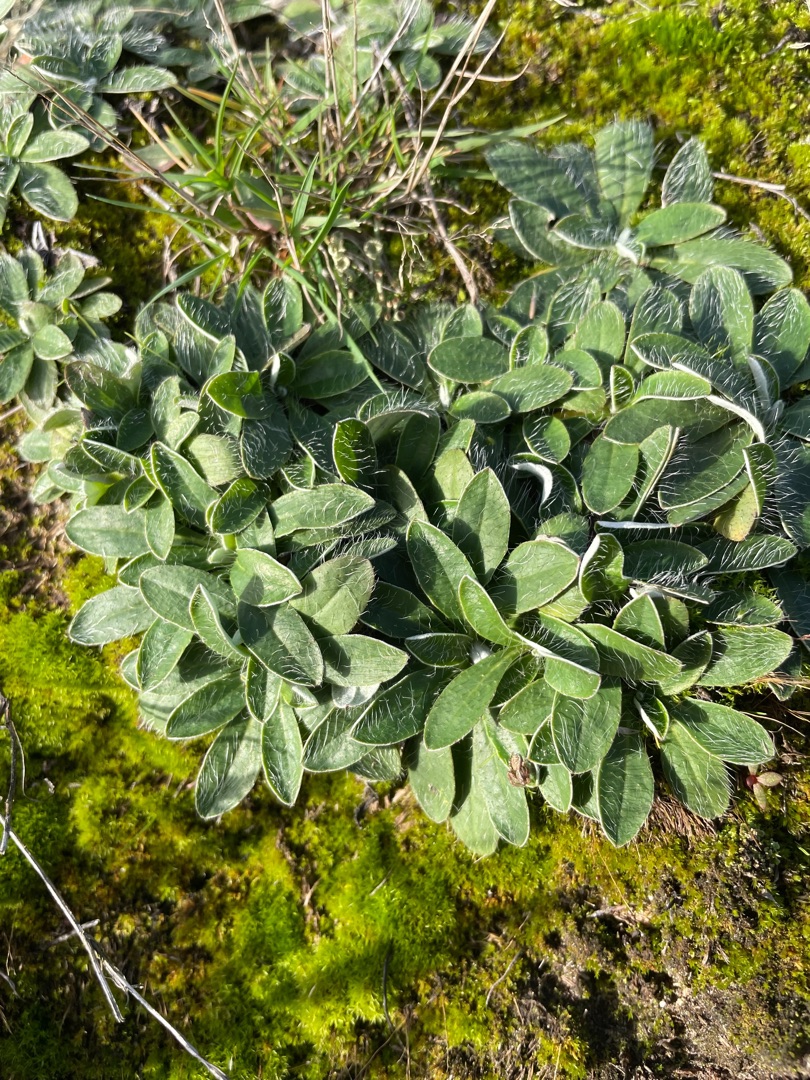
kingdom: Plantae
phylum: Tracheophyta
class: Magnoliopsida
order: Asterales
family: Asteraceae
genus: Pilosella
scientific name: Pilosella officinarum
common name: Håret høgeurt
